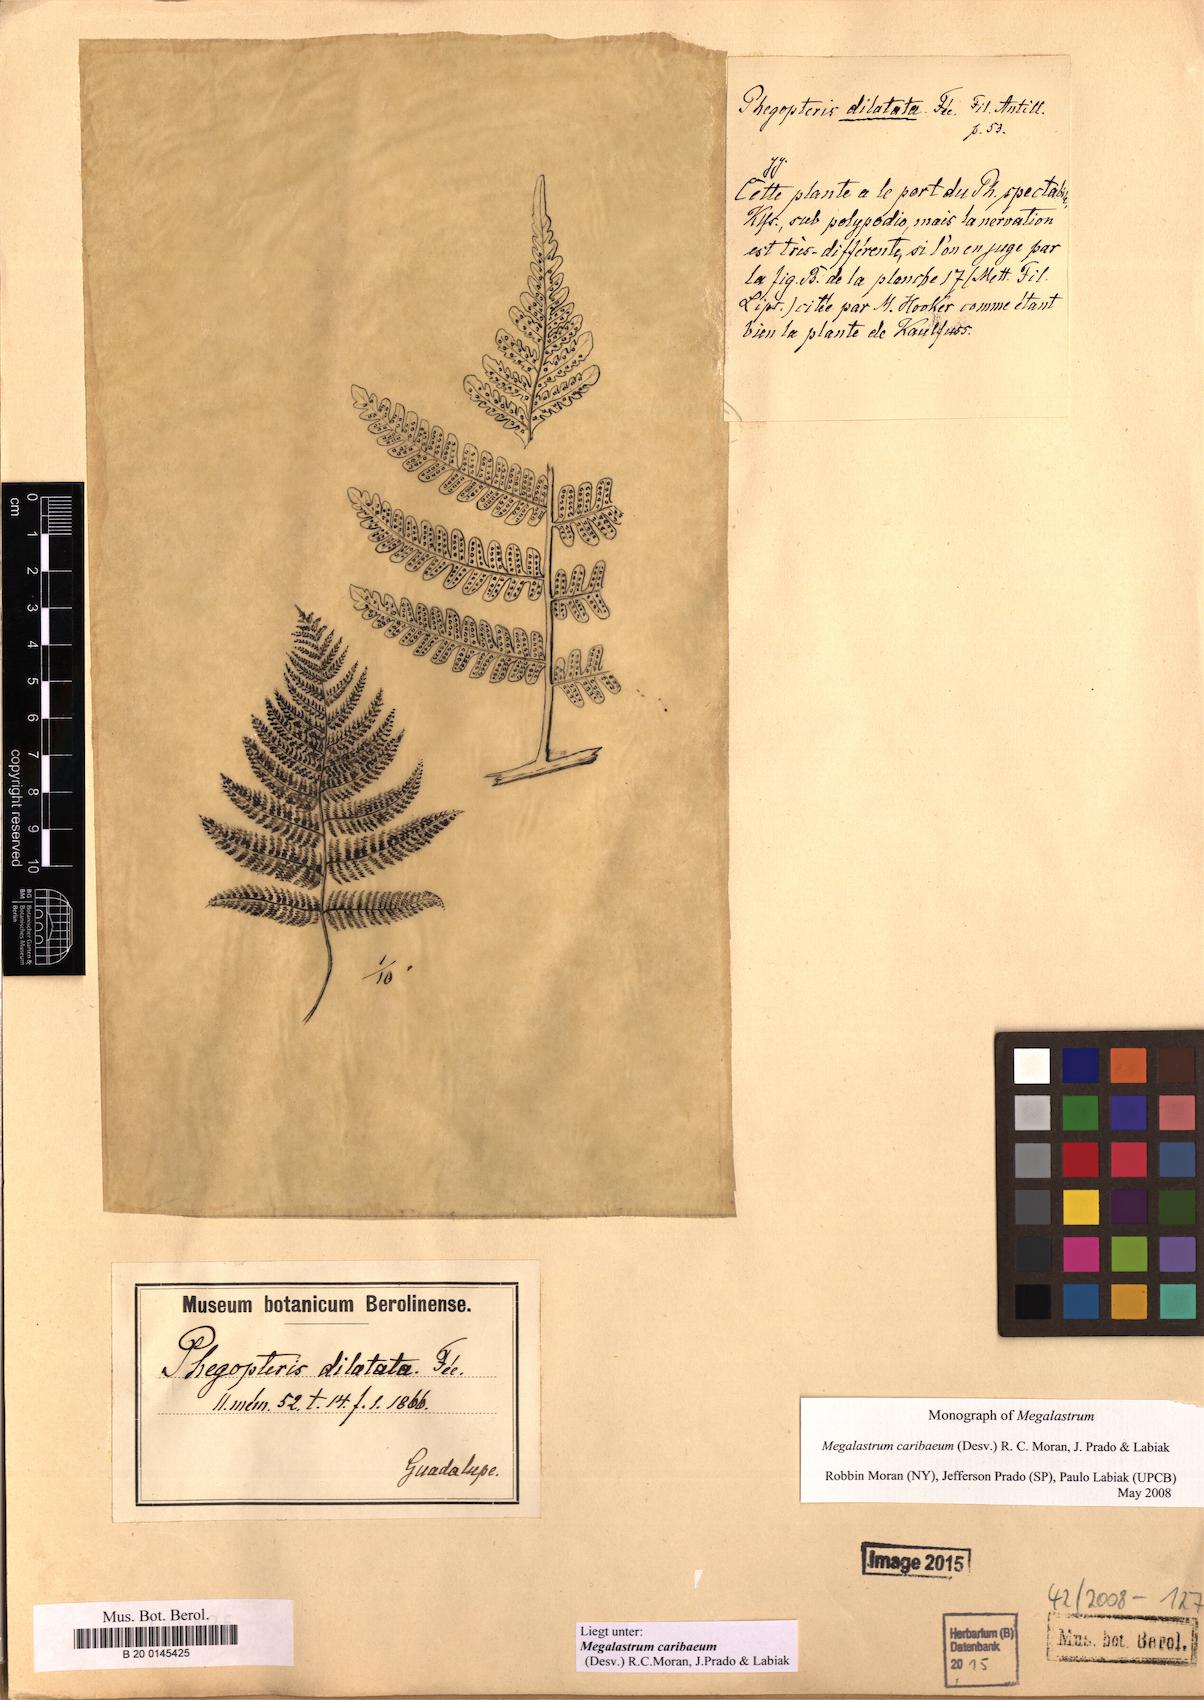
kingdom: Plantae
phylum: Tracheophyta
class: Polypodiopsida
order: Polypodiales
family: Dryopteridaceae
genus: Megalastrum
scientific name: Megalastrum caribaeum
